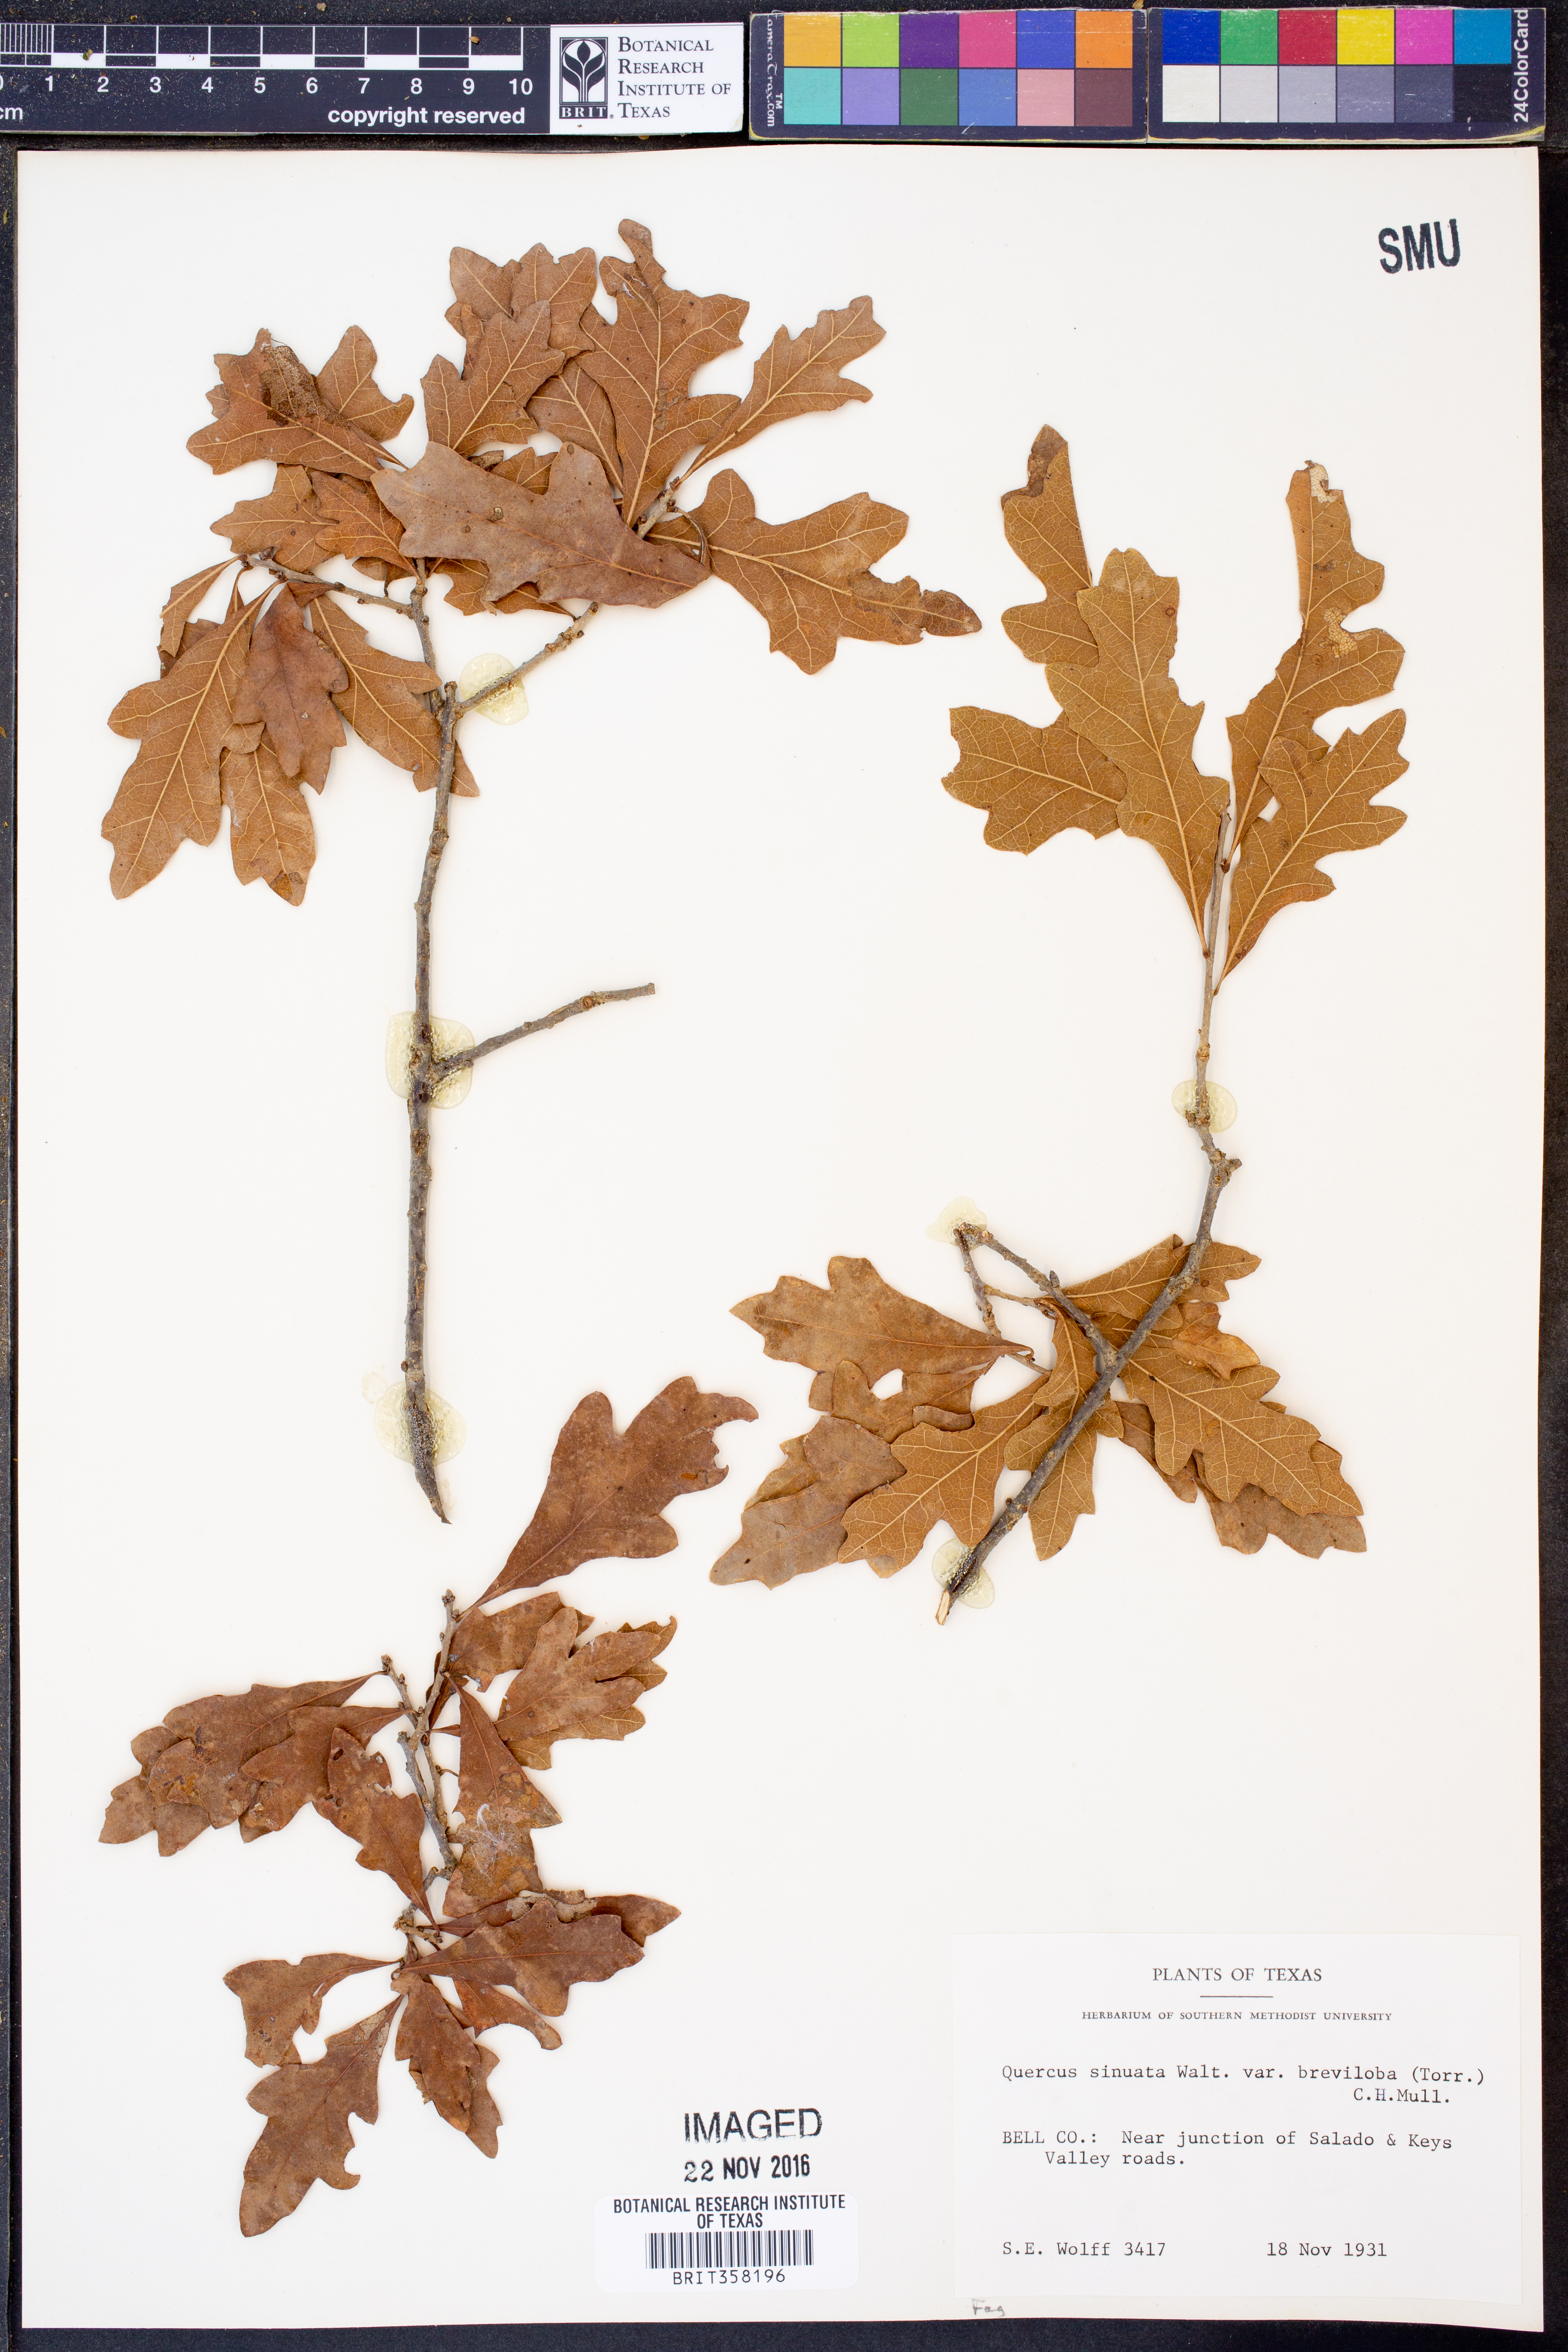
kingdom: Plantae
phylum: Tracheophyta
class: Magnoliopsida
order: Fagales
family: Fagaceae
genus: Quercus
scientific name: Quercus sinuata
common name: Durand oak
